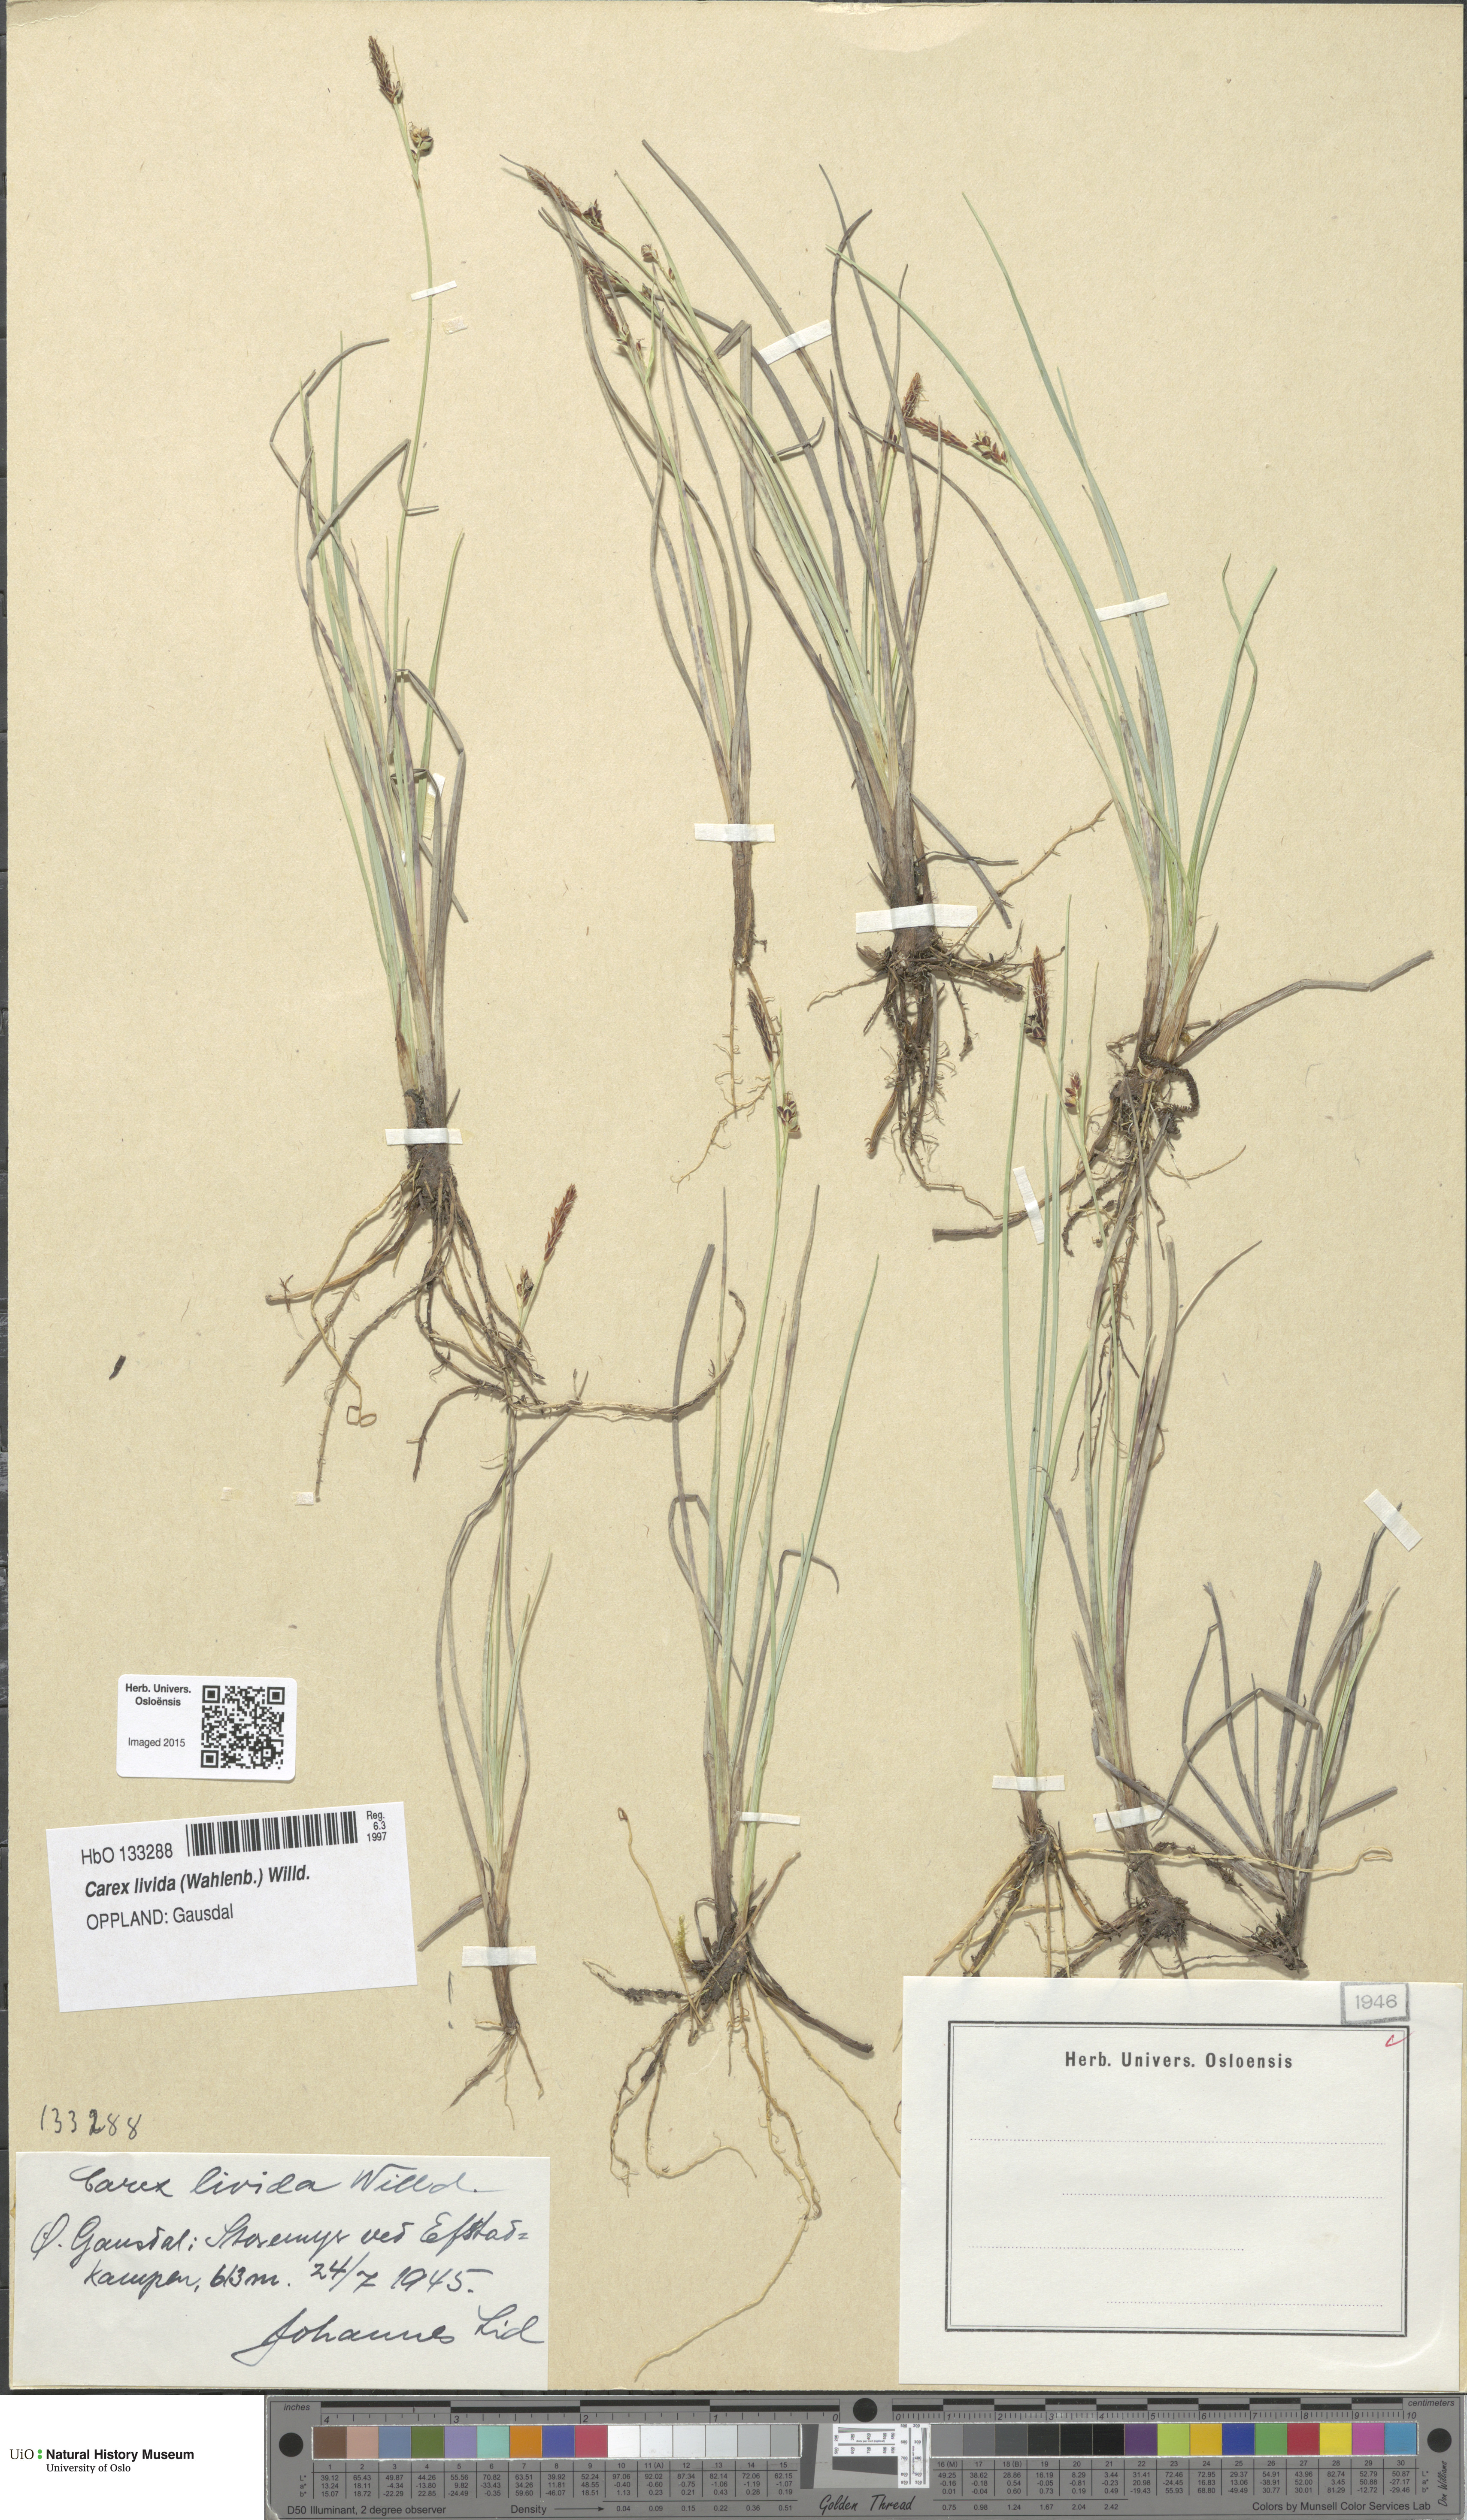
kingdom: Plantae
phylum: Tracheophyta
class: Liliopsida
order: Poales
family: Cyperaceae
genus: Carex
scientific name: Carex livida
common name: Livid sedge
